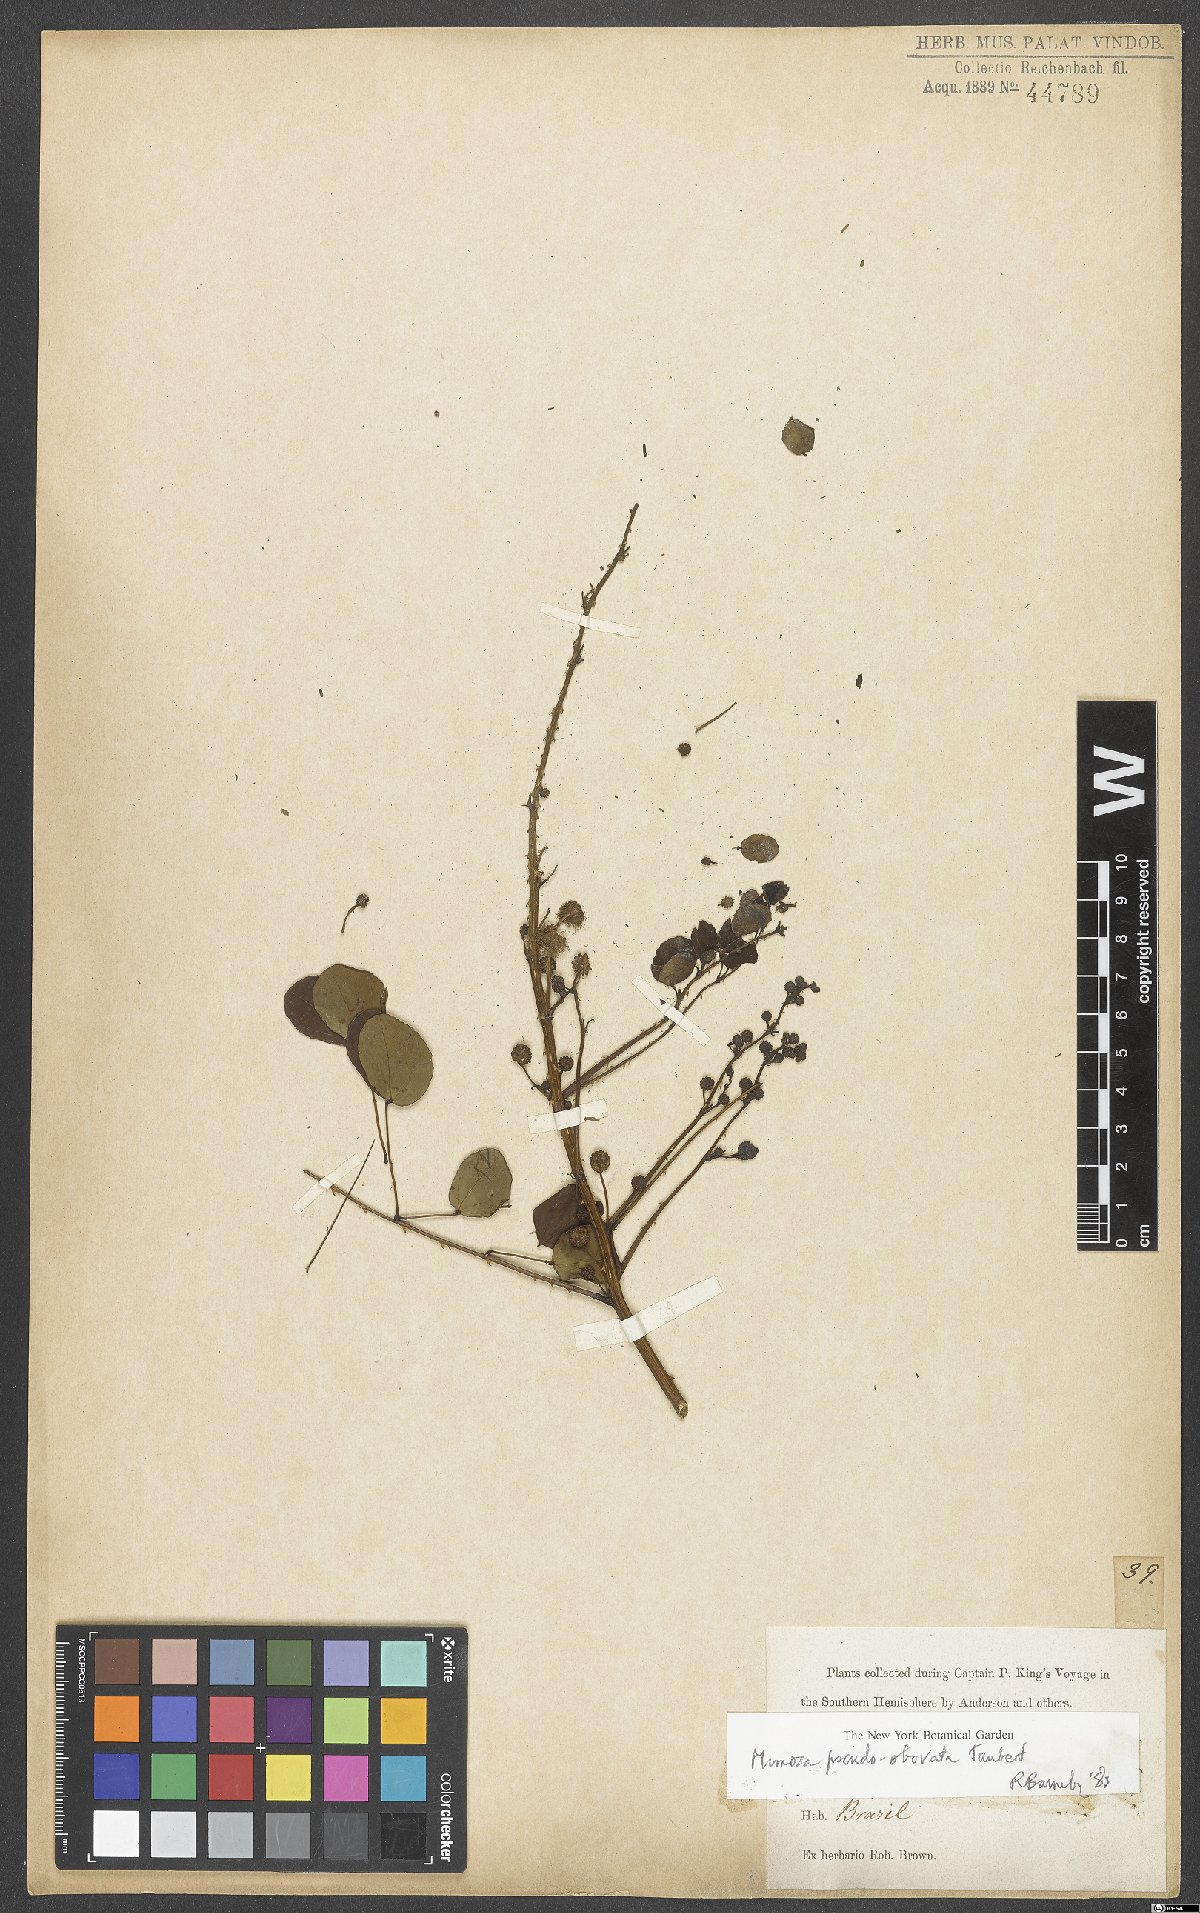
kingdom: Plantae
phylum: Tracheophyta
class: Magnoliopsida
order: Fabales
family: Fabaceae
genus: Mimosa
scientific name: Mimosa ceratonia
